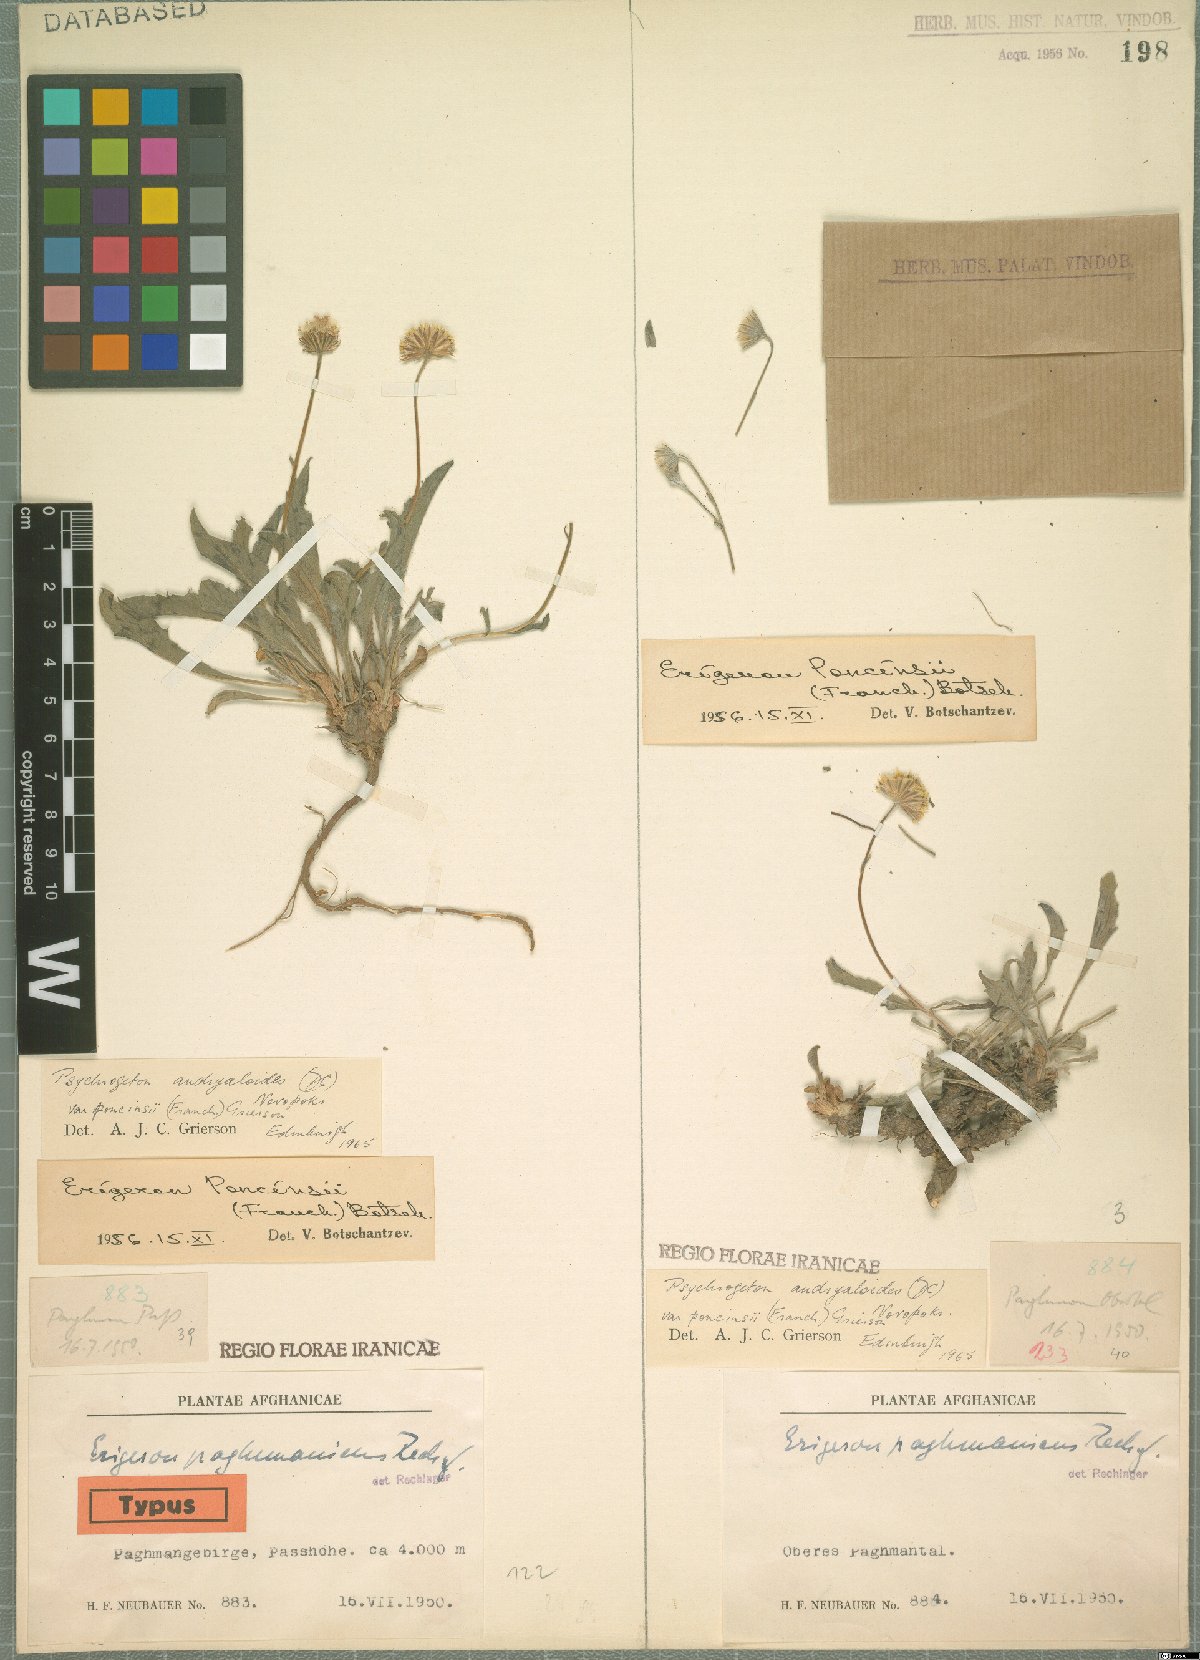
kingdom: Plantae
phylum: Tracheophyta
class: Magnoliopsida
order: Asterales
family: Asteraceae
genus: Psychrogeton
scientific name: Psychrogeton poncinsii
